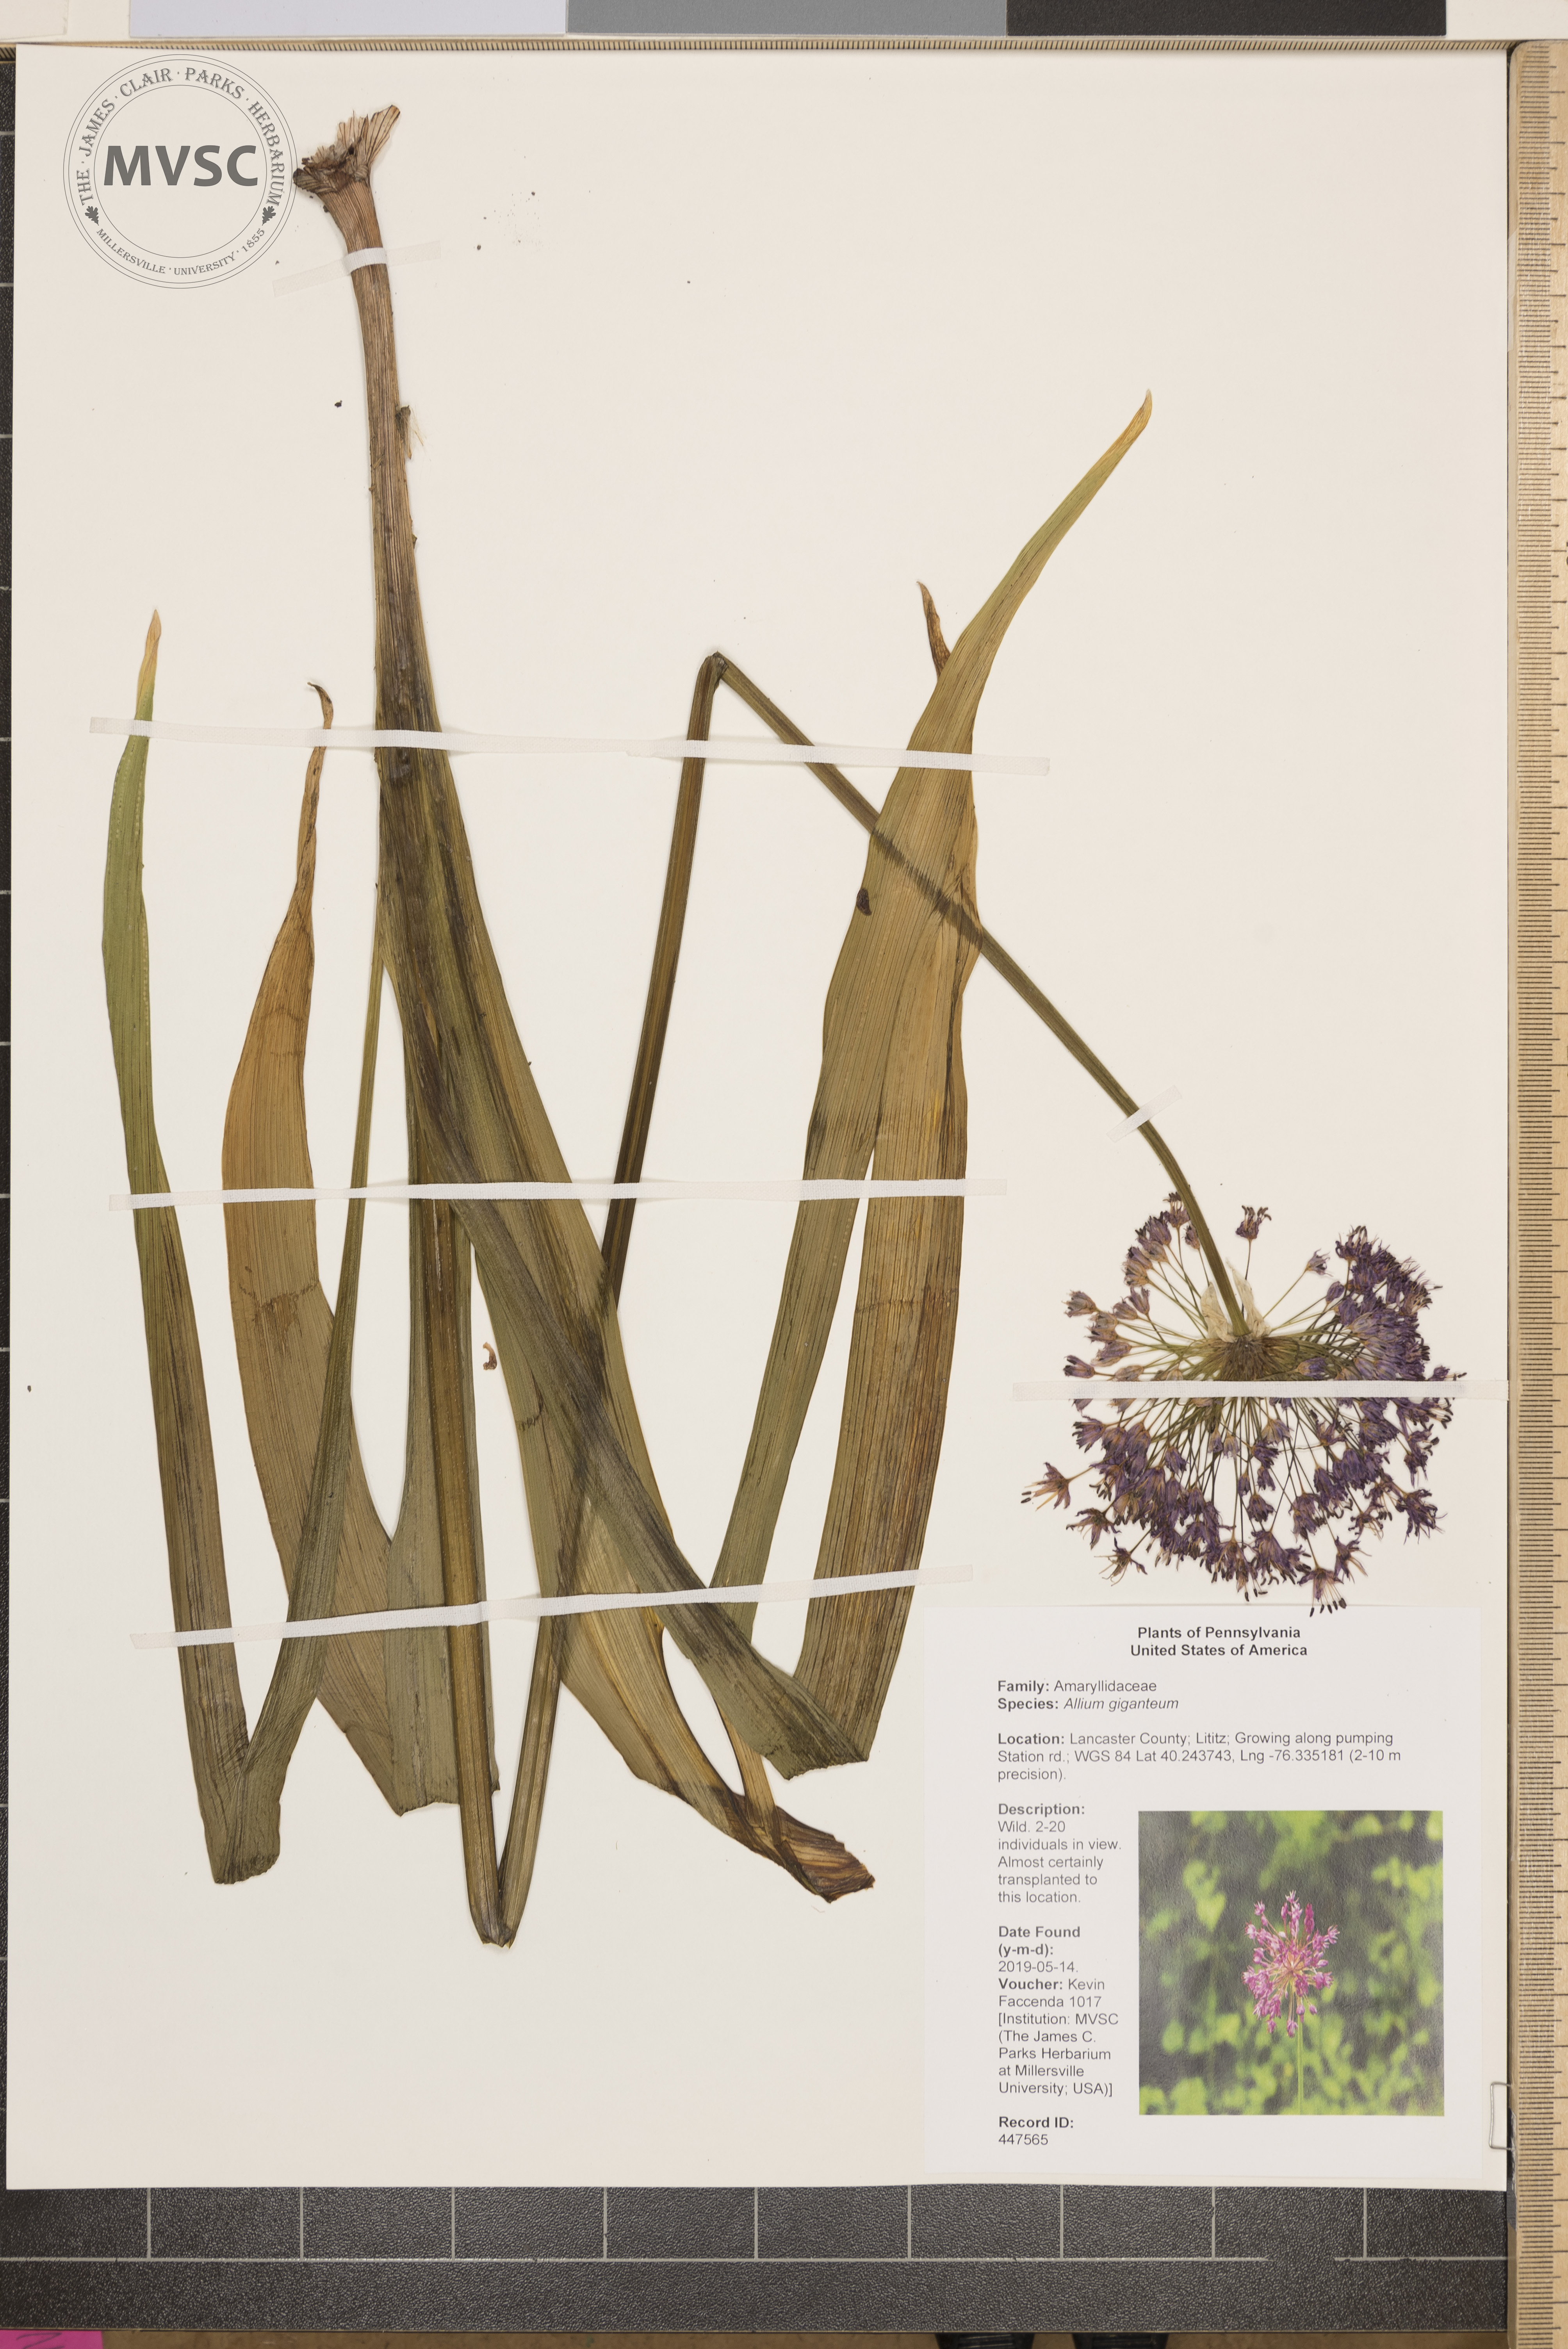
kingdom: Plantae
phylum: Tracheophyta
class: Liliopsida
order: Asparagales
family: Amaryllidaceae
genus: Allium
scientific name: Allium giganteum
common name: Giant onion
